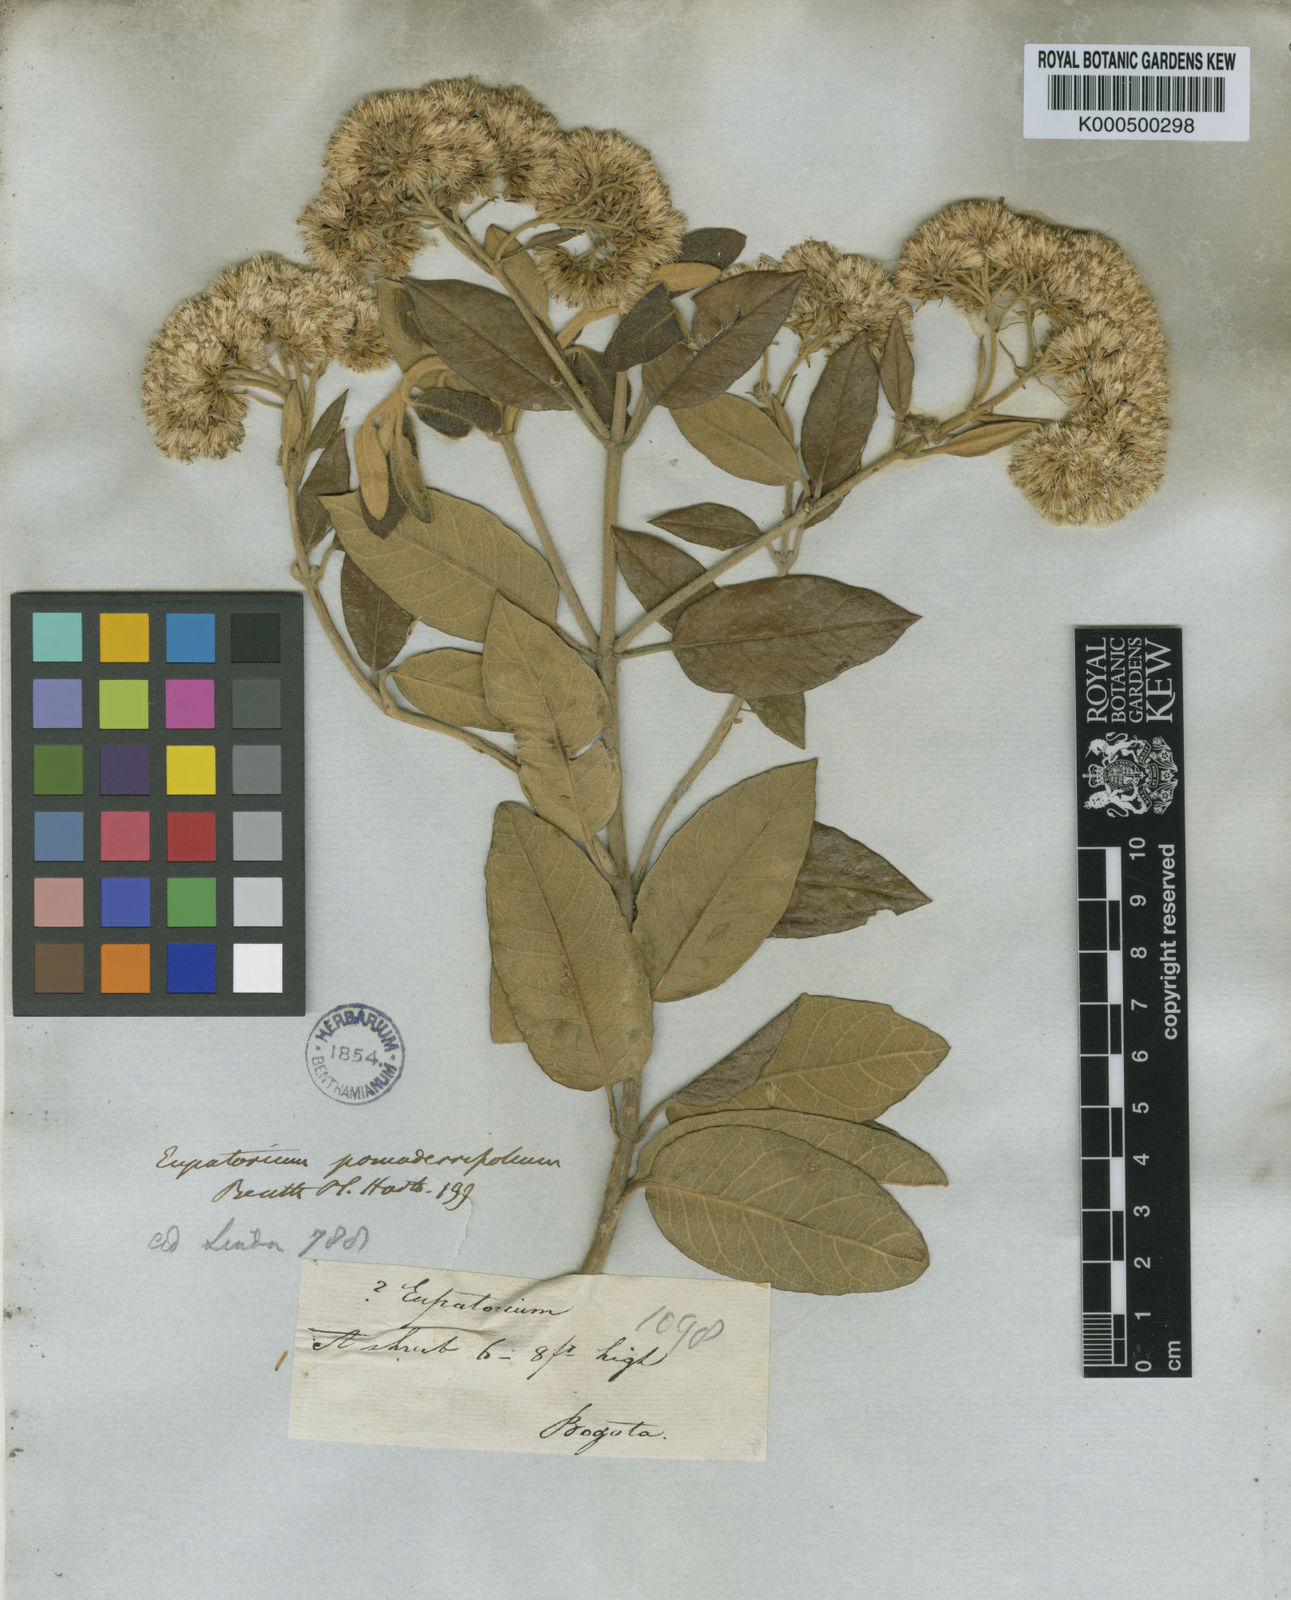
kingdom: Plantae
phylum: Tracheophyta
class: Magnoliopsida
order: Asterales
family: Asteraceae
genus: Ageratina
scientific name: Ageratina asclepiadea
